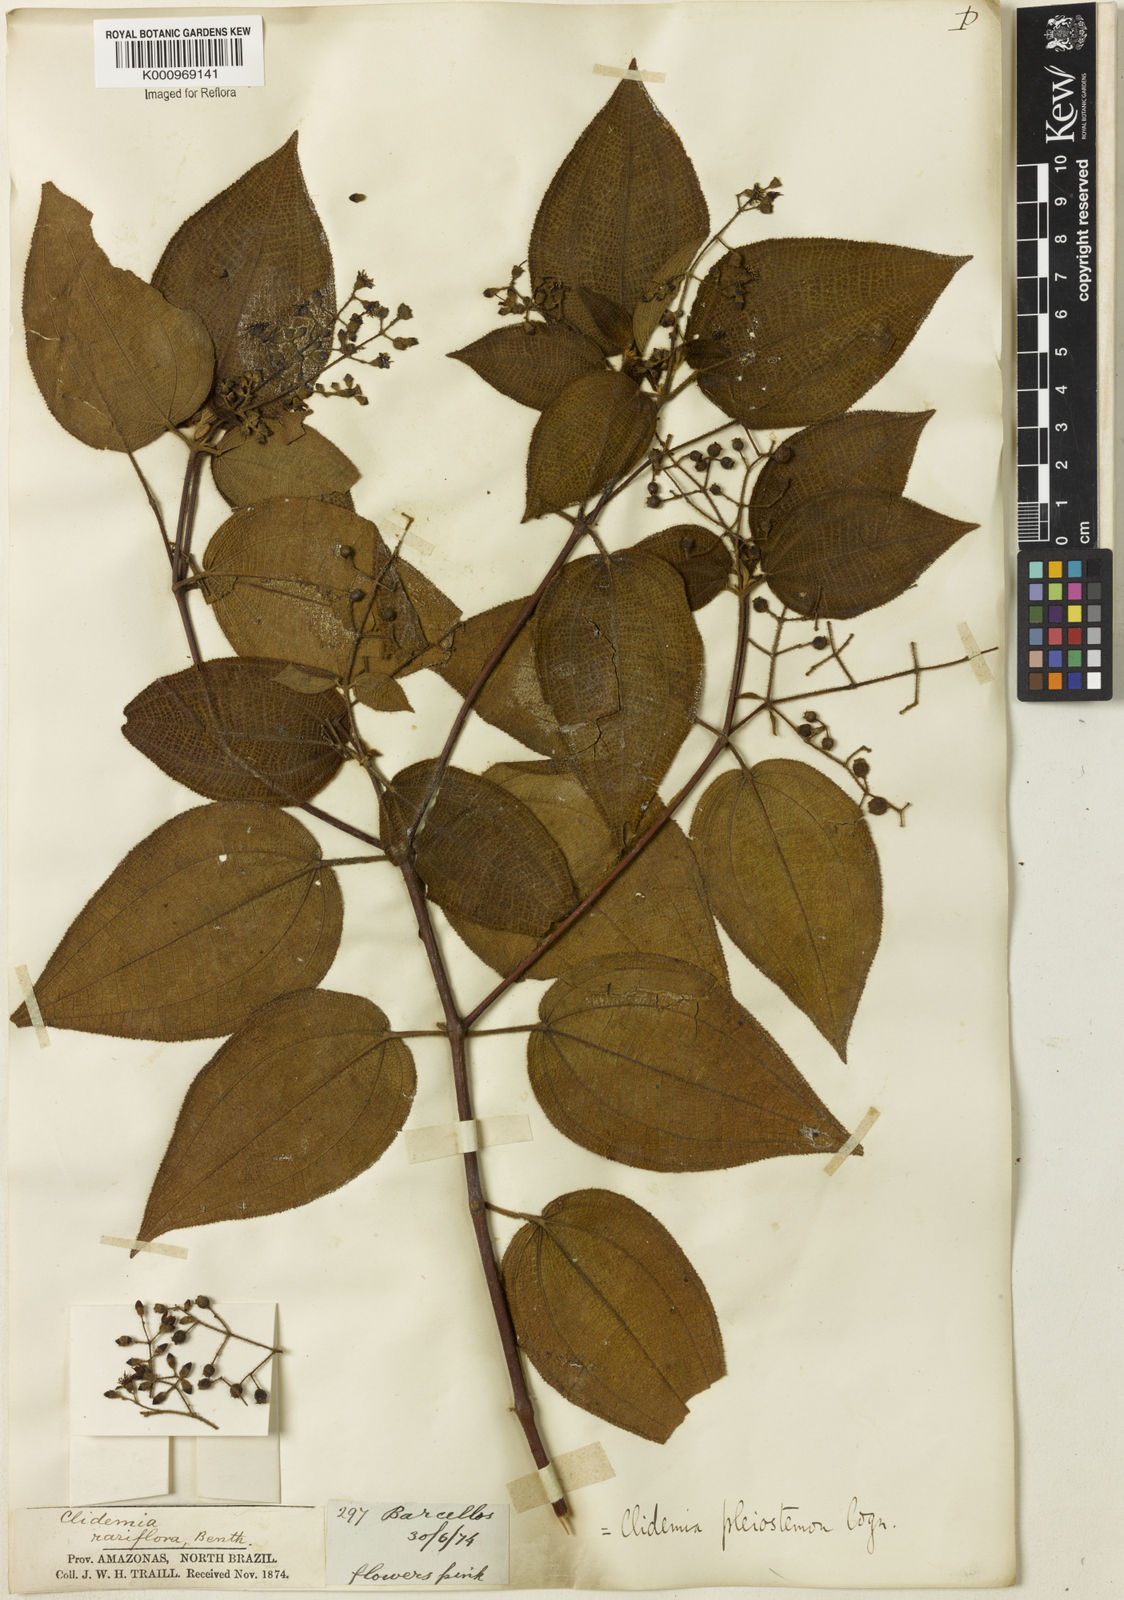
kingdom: Plantae
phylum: Tracheophyta
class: Magnoliopsida
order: Myrtales
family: Melastomataceae
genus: Miconia
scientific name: Miconia biserrata
